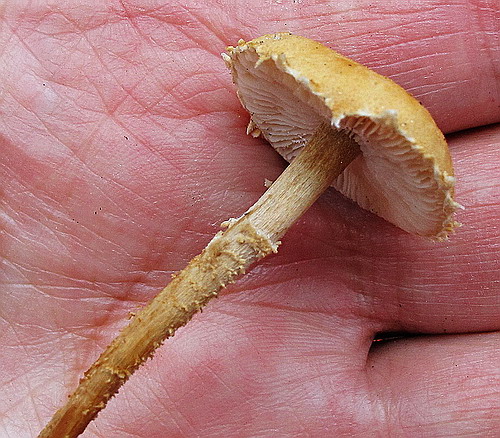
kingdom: Fungi
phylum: Basidiomycota
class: Agaricomycetes
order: Agaricales
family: Tricholomataceae
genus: Cystoderma
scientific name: Cystoderma amianthinum
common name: okkergul grynhat
